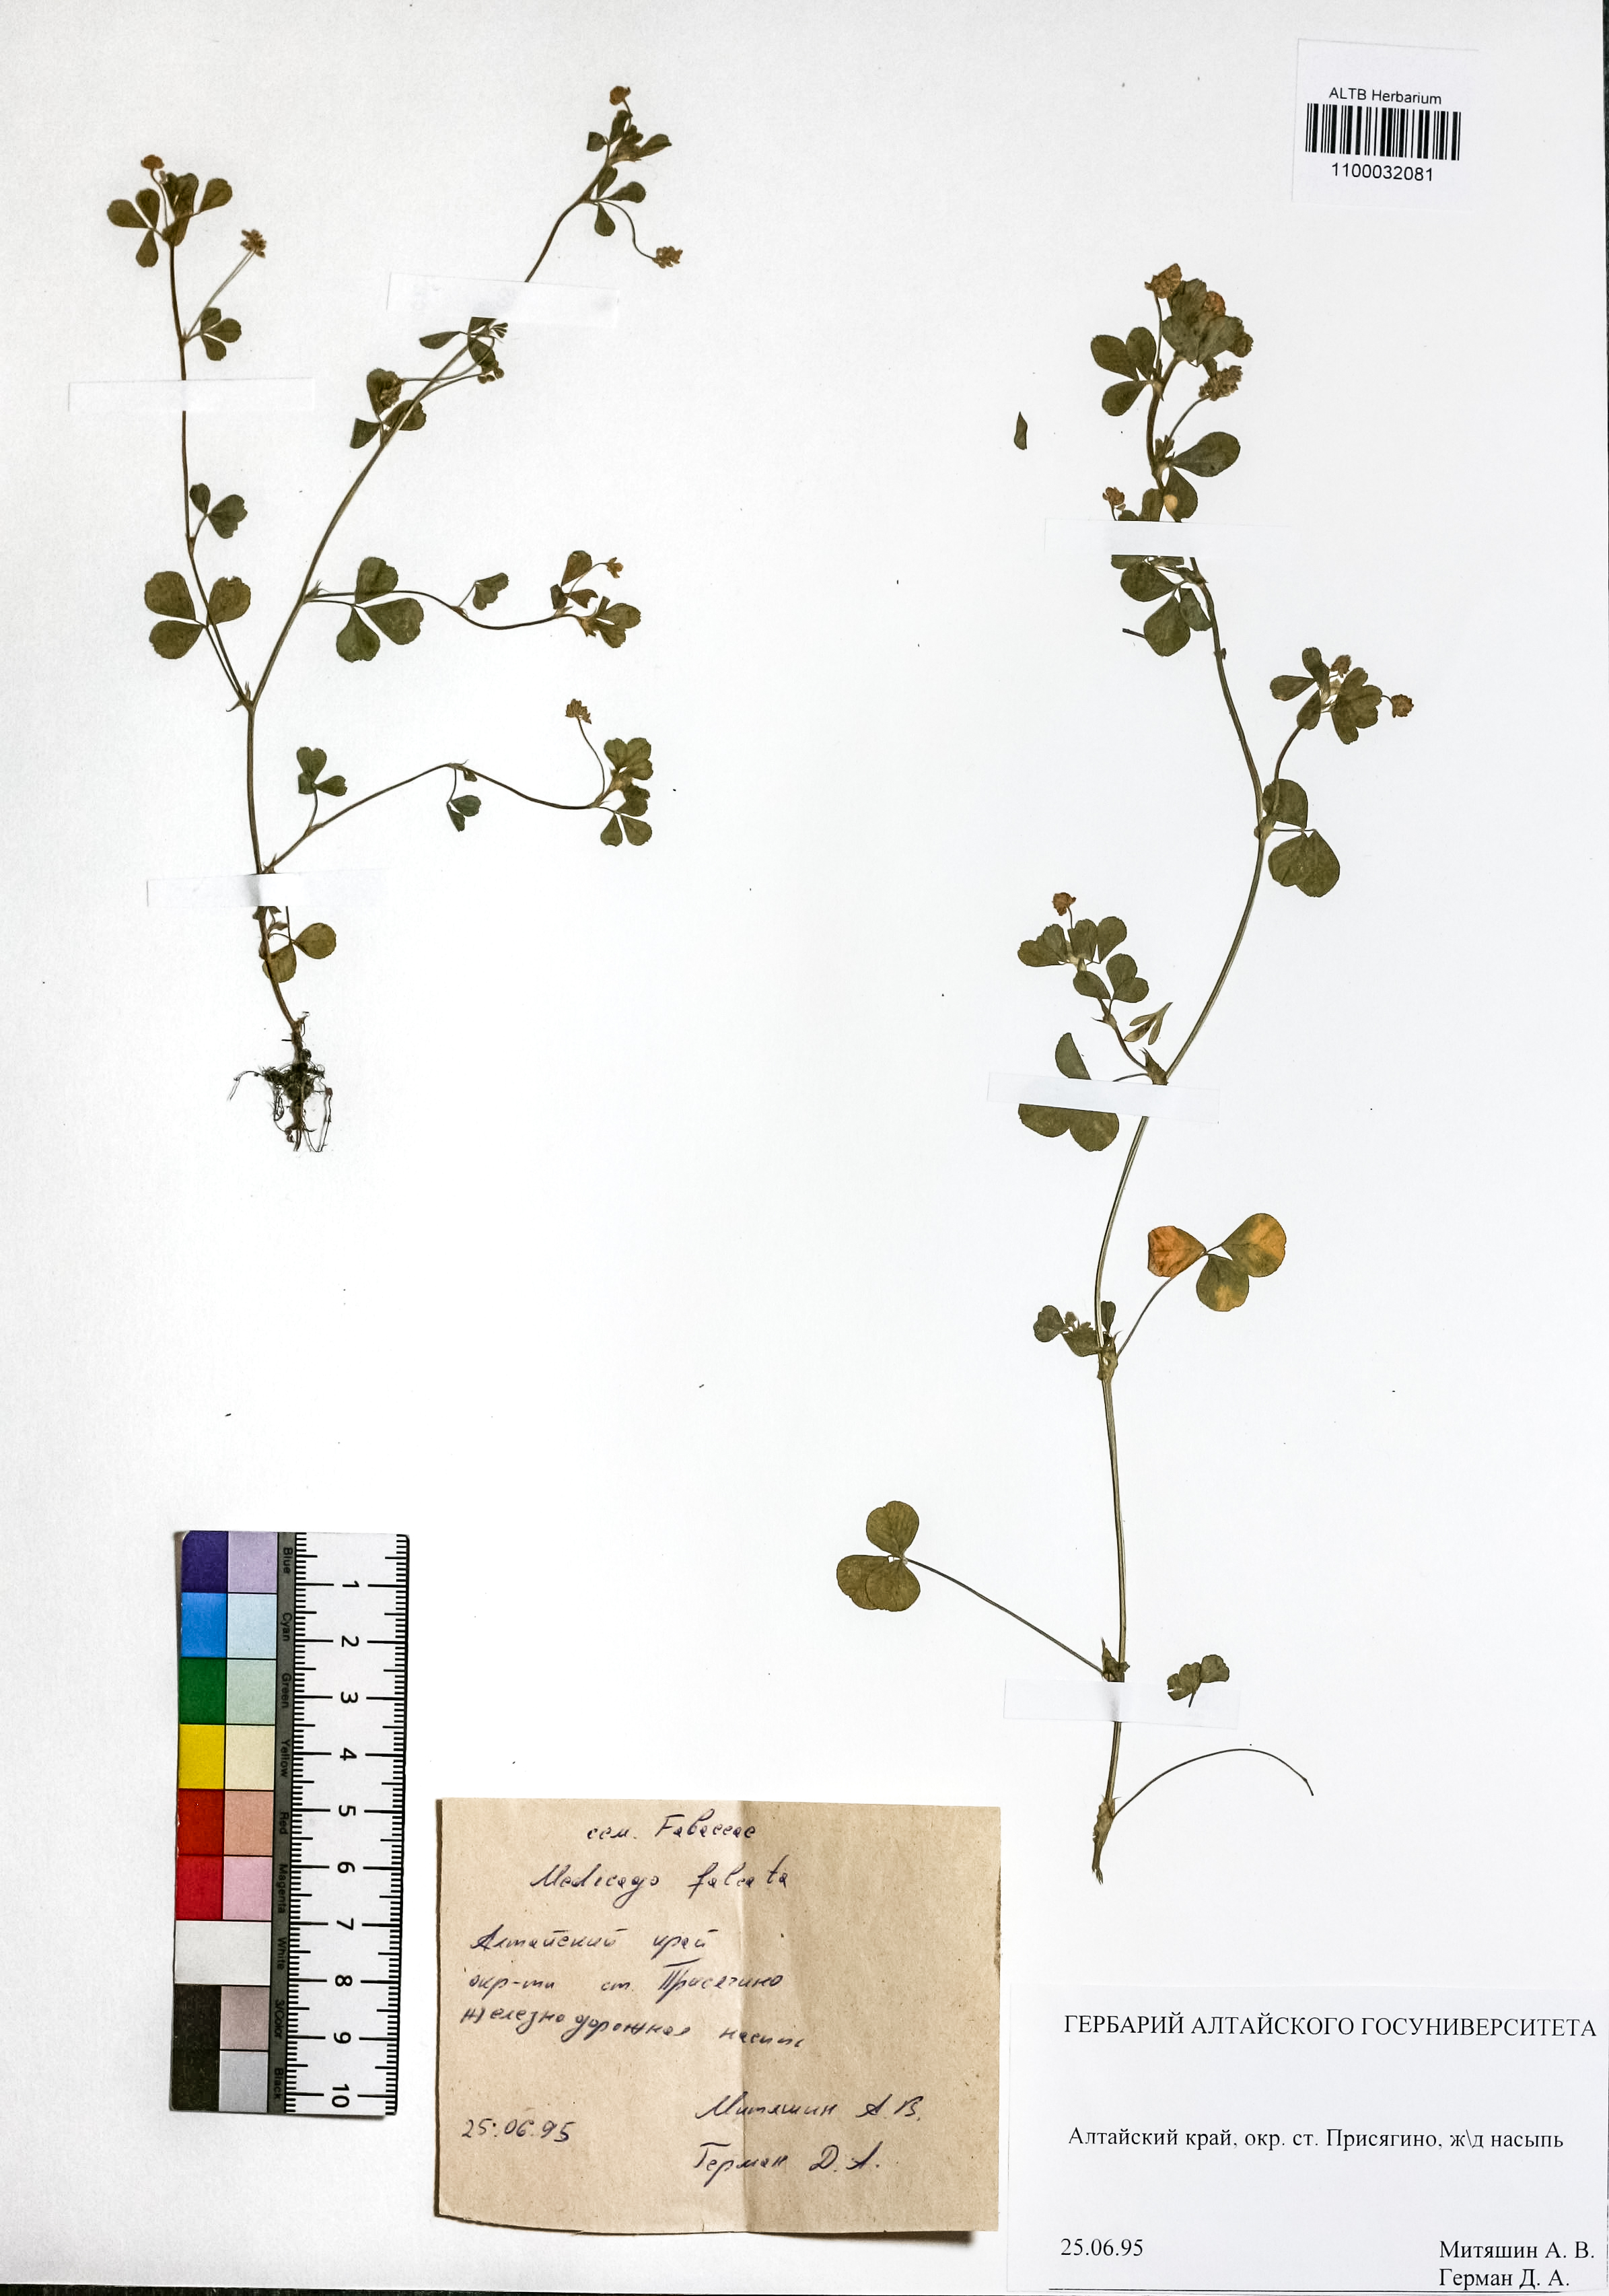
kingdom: Plantae
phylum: Tracheophyta
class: Magnoliopsida
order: Fabales
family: Fabaceae
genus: Medicago
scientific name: Medicago falcata
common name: Sickle medick
